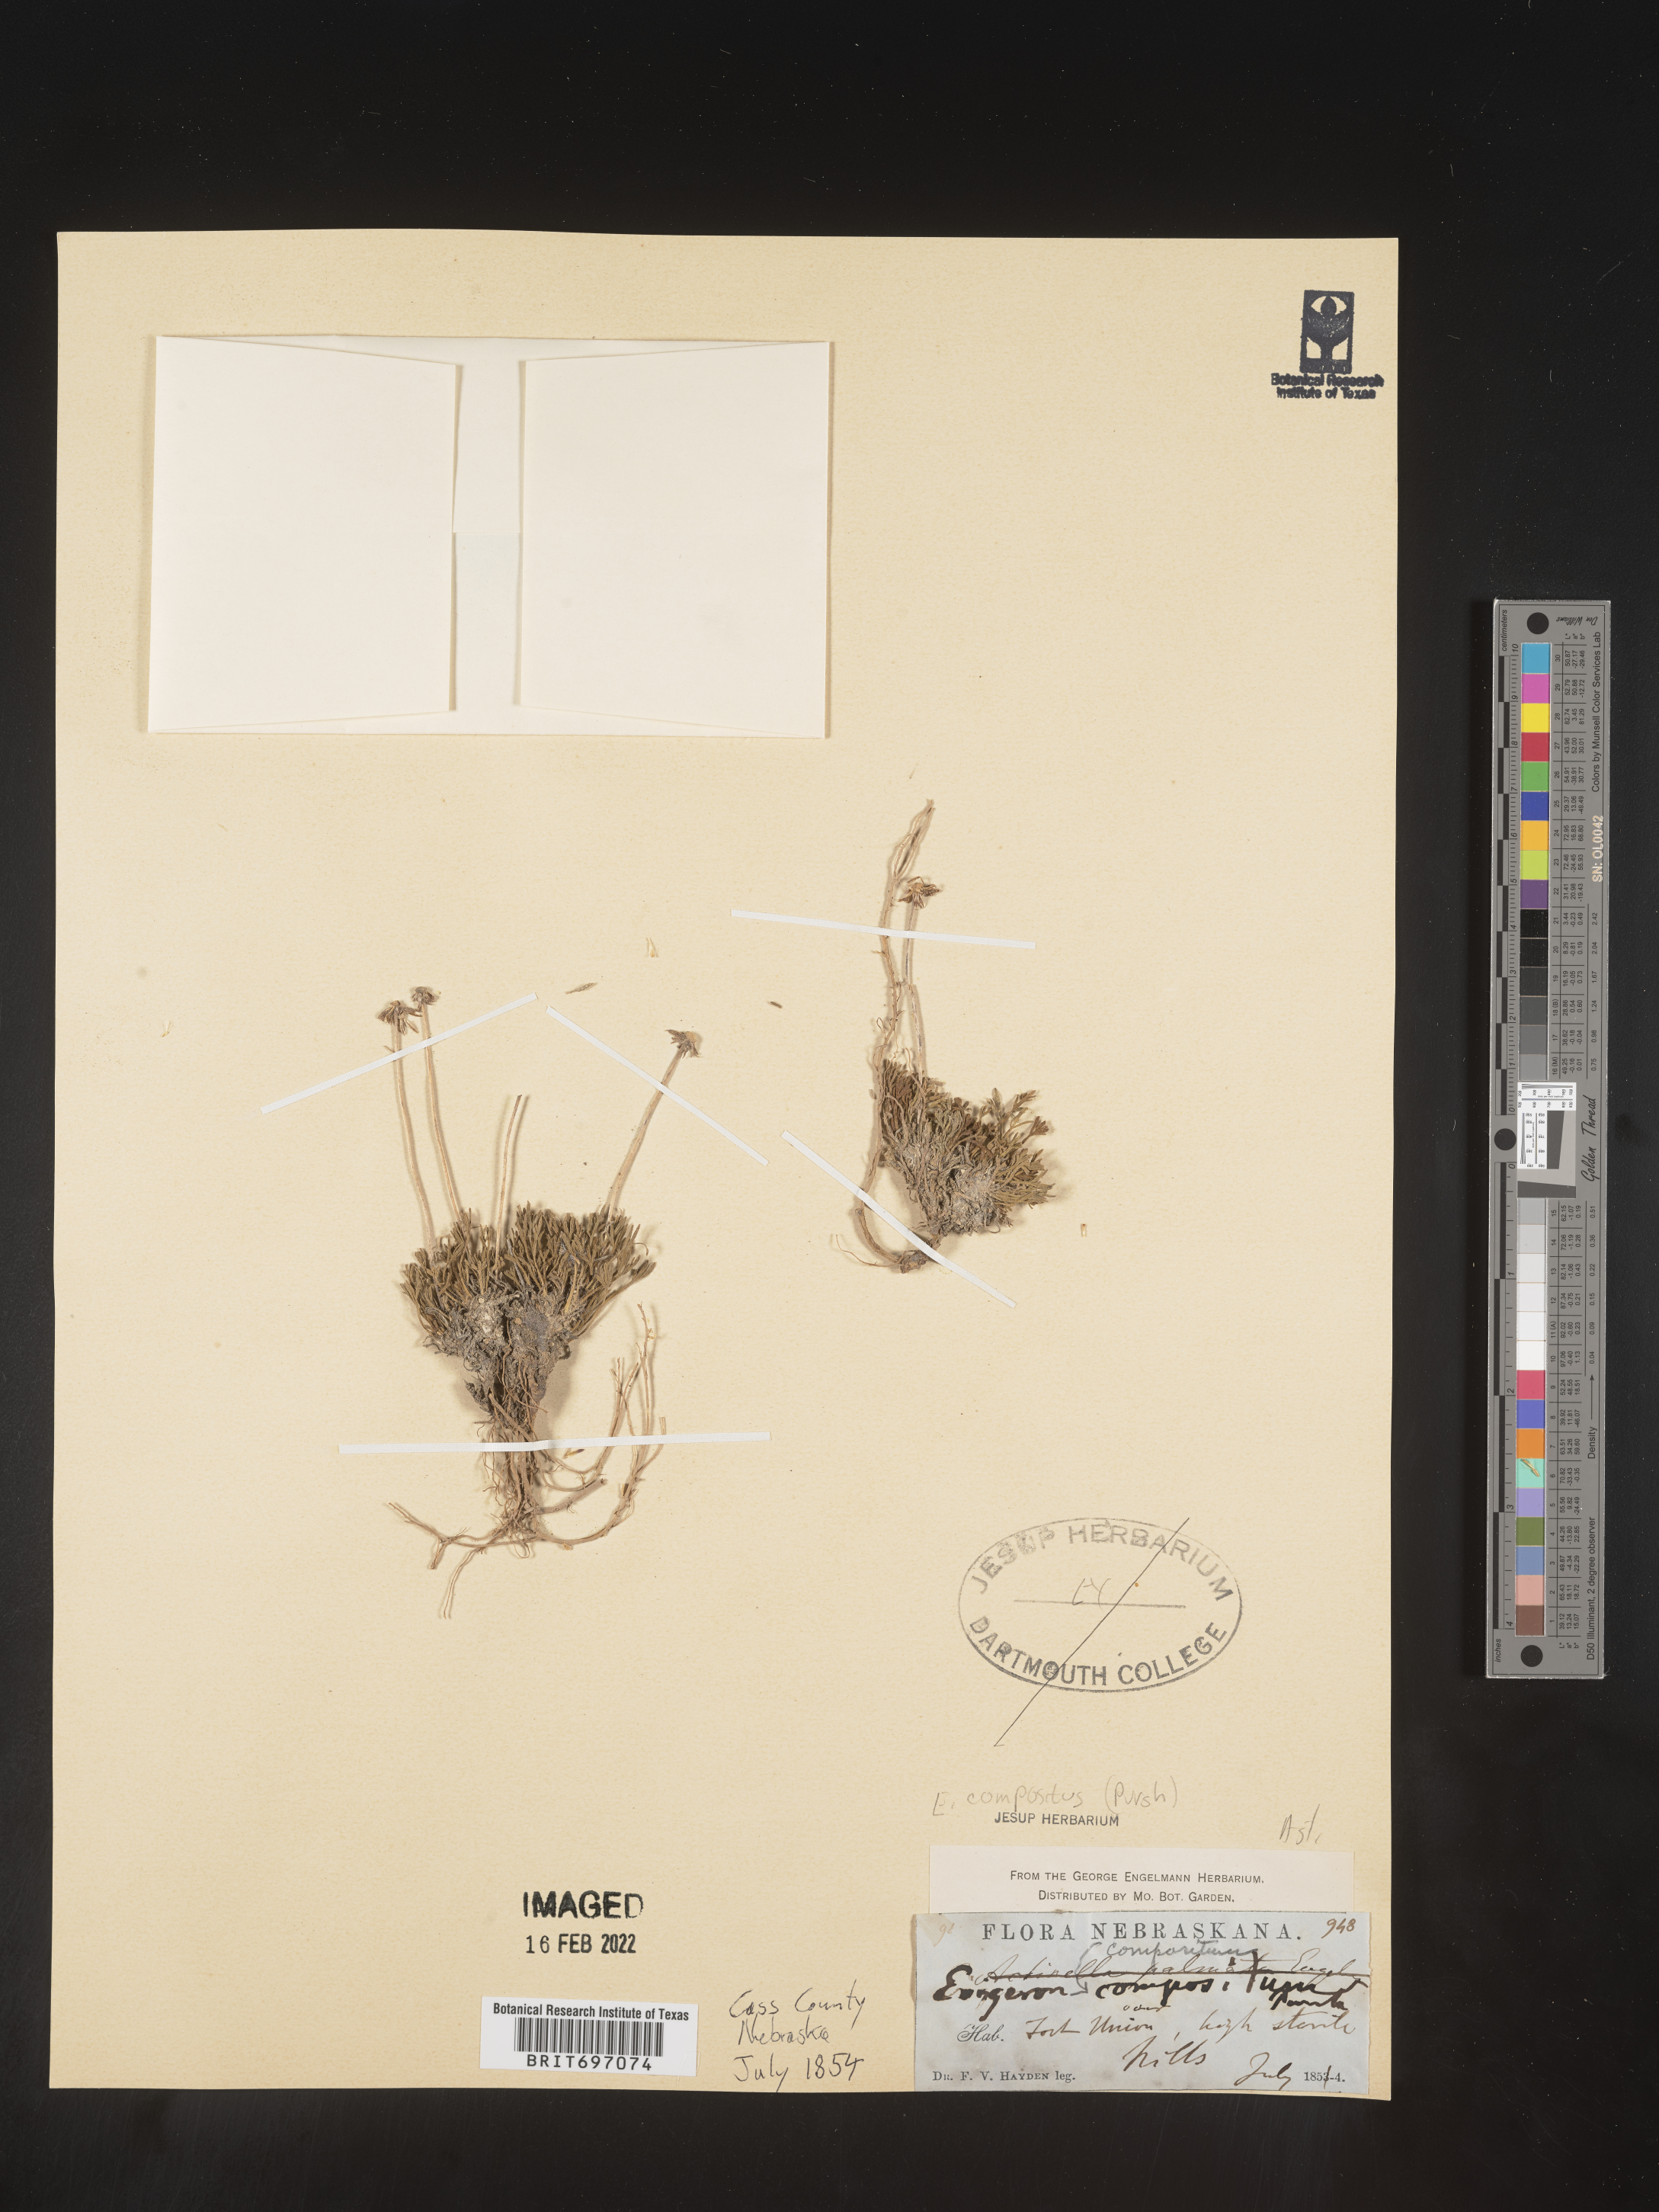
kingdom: Plantae
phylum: Tracheophyta
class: Magnoliopsida
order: Asterales
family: Asteraceae
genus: Erigeron
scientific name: Erigeron compositus
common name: Dwarf mountain fleabane
